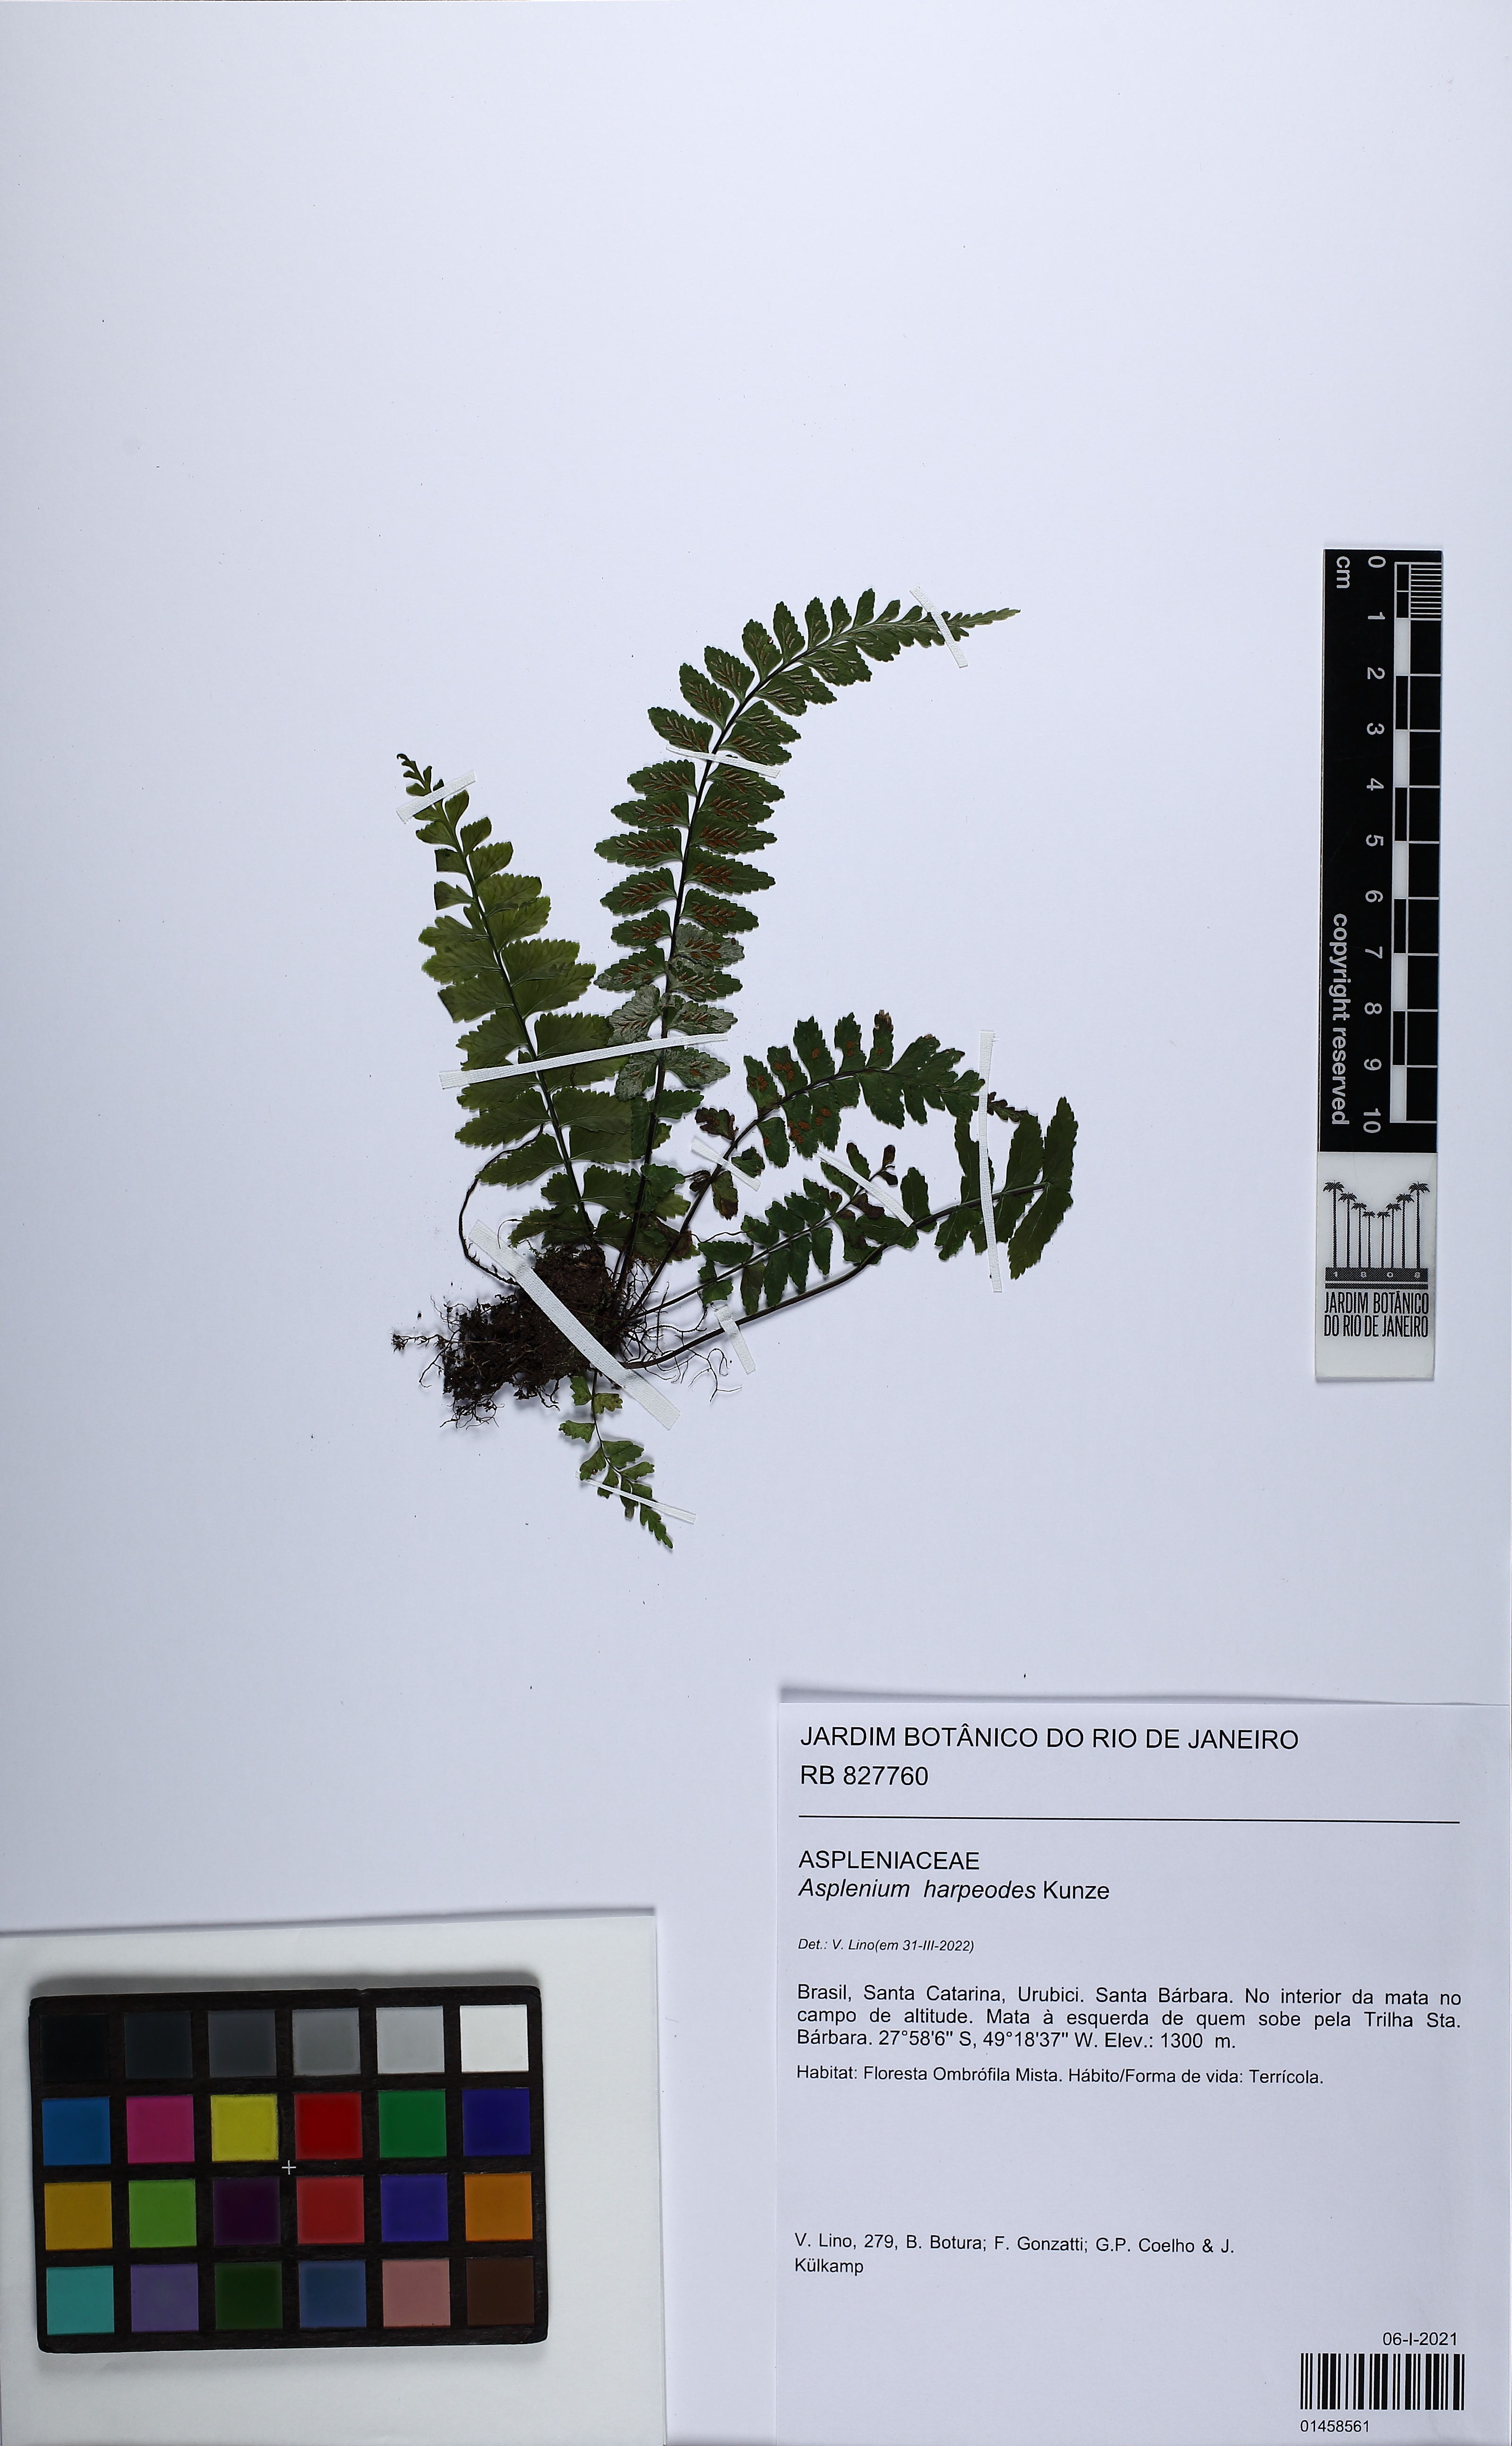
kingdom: Plantae
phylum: Tracheophyta
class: Polypodiopsida
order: Polypodiales
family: Aspleniaceae
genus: Asplenium
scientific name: Asplenium harpeodes
